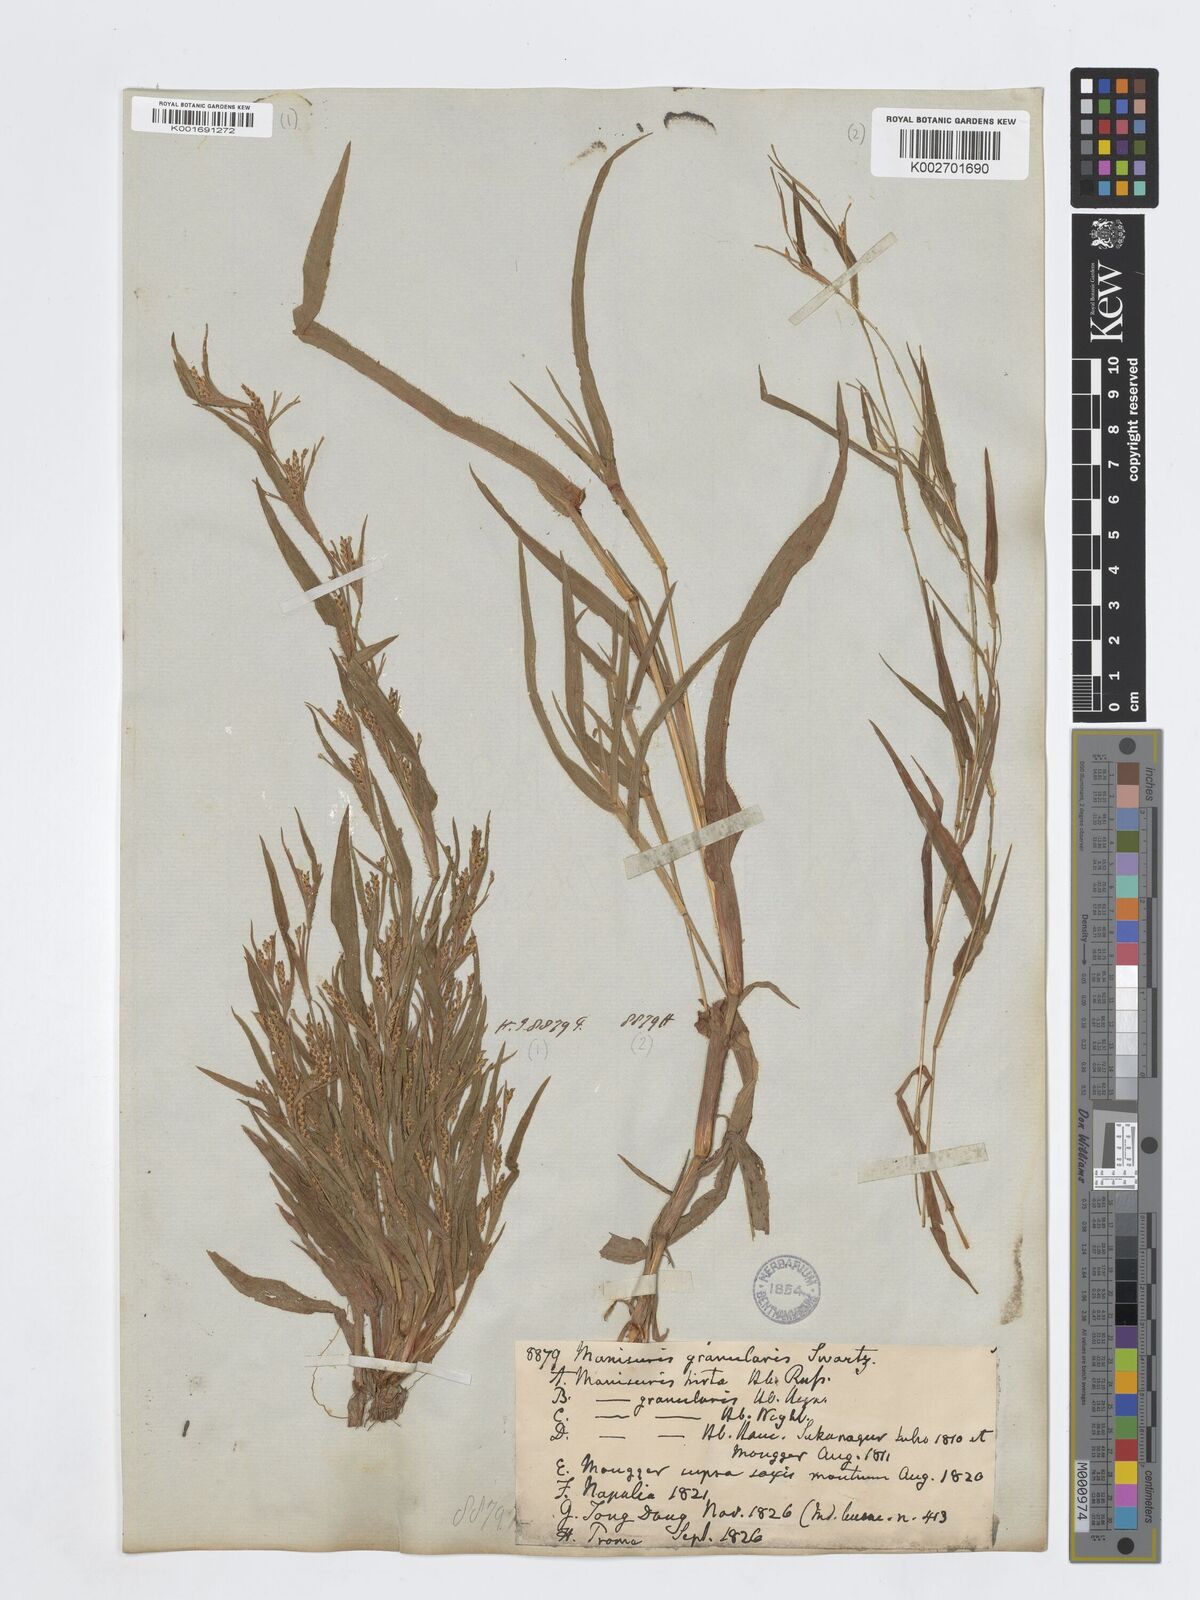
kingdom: Plantae
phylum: Tracheophyta
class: Liliopsida
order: Poales
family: Poaceae
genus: Hackelochloa
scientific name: Hackelochloa granularis
